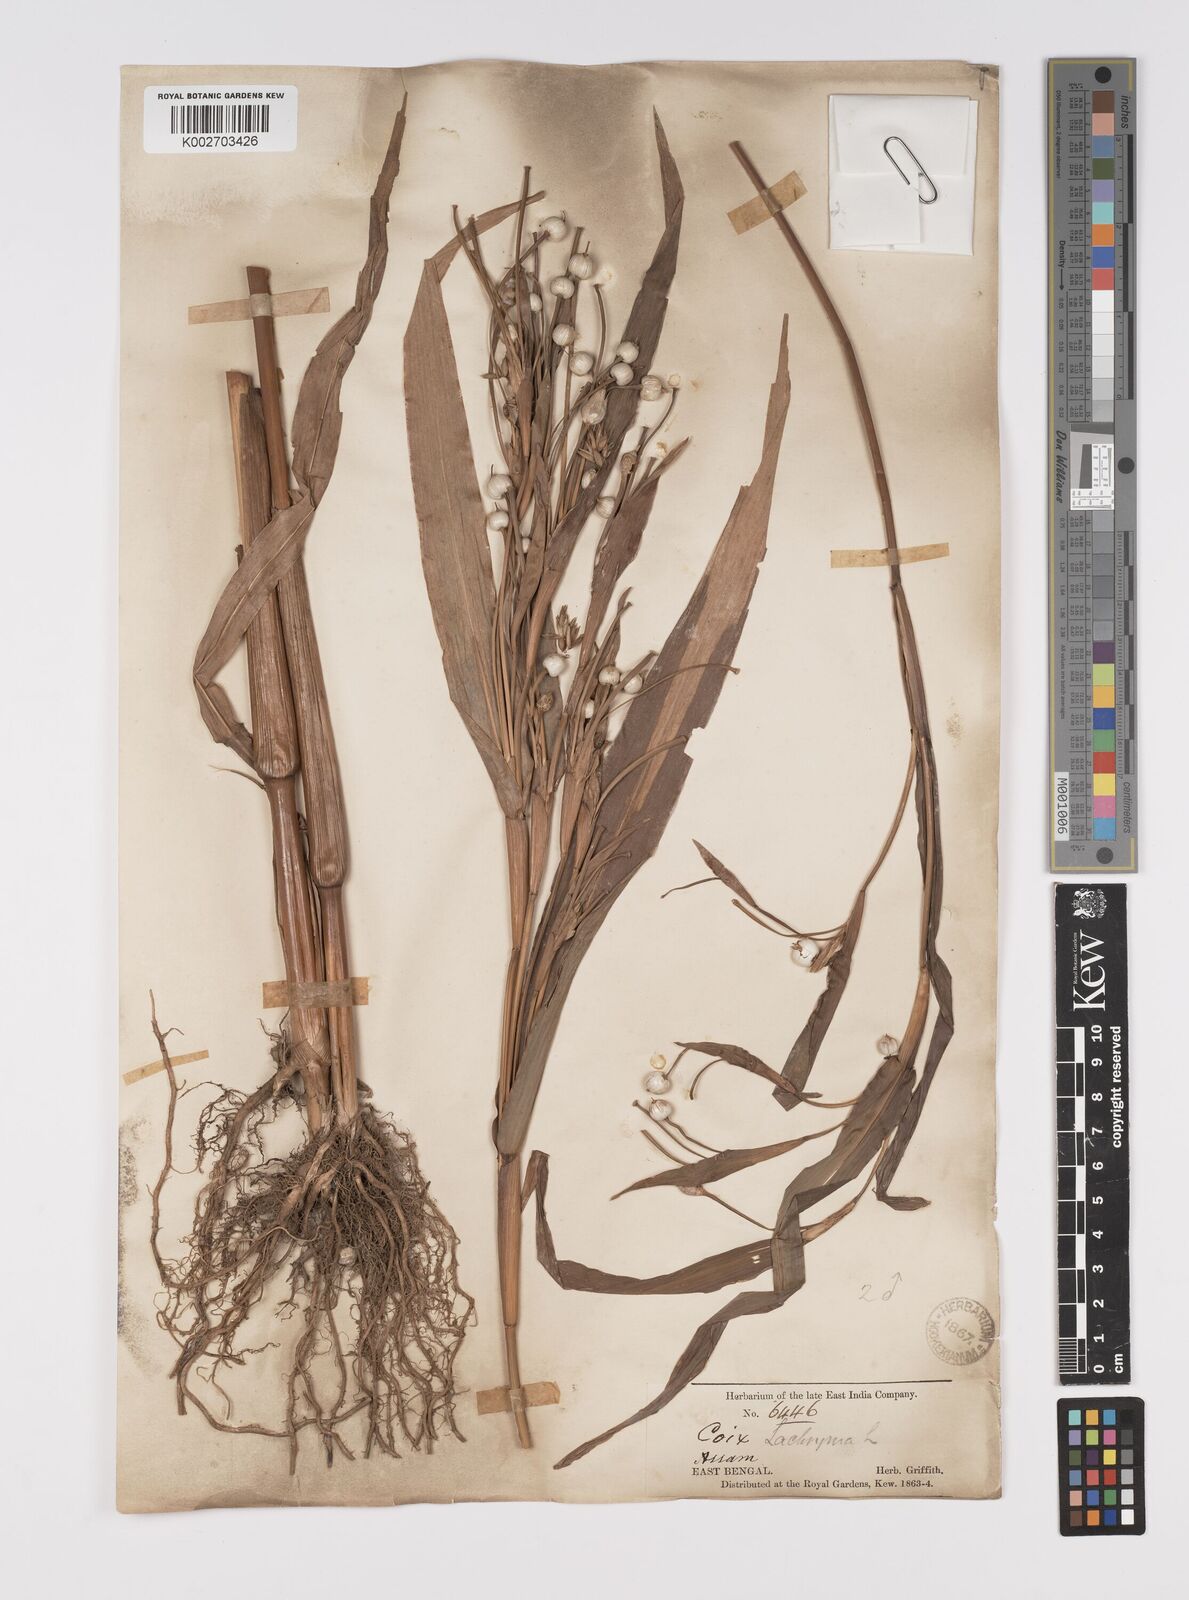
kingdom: Plantae
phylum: Tracheophyta
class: Liliopsida
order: Poales
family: Poaceae
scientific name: Poaceae
